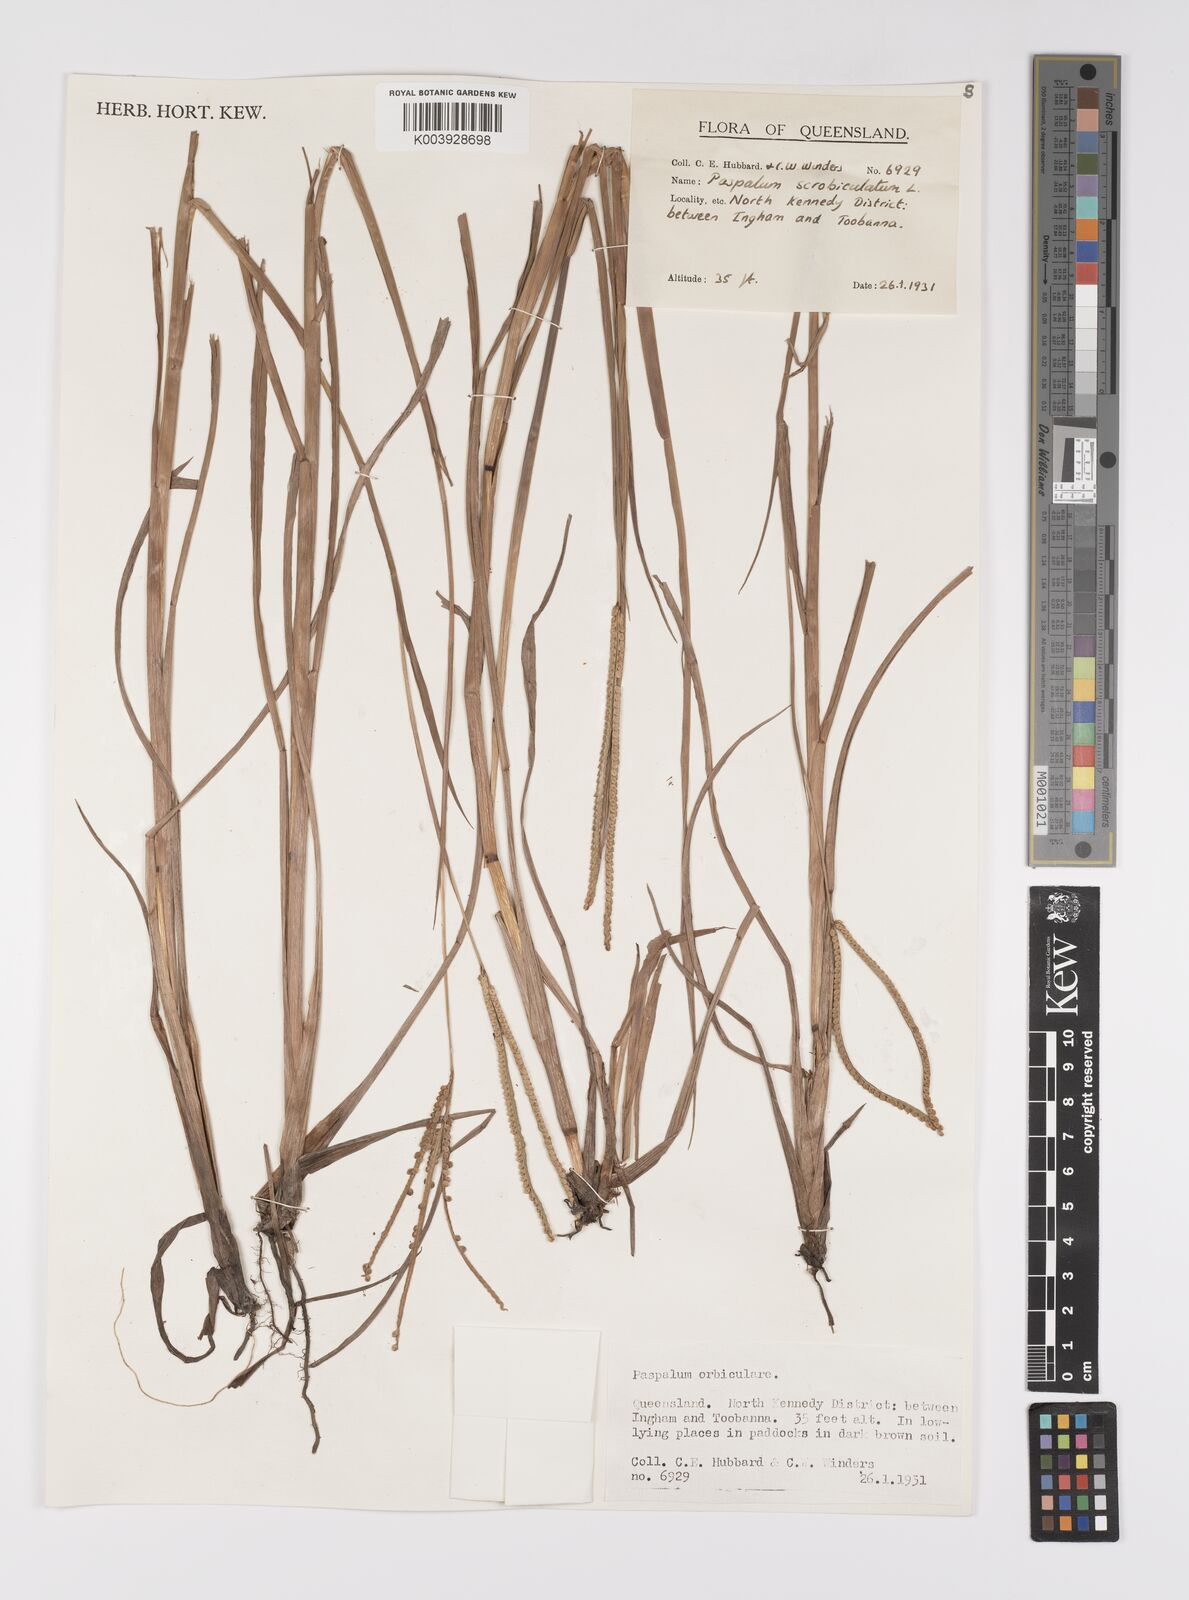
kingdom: Plantae
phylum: Tracheophyta
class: Liliopsida
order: Poales
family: Poaceae
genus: Paspalum
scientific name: Paspalum scrobiculatum
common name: Kodo millet
